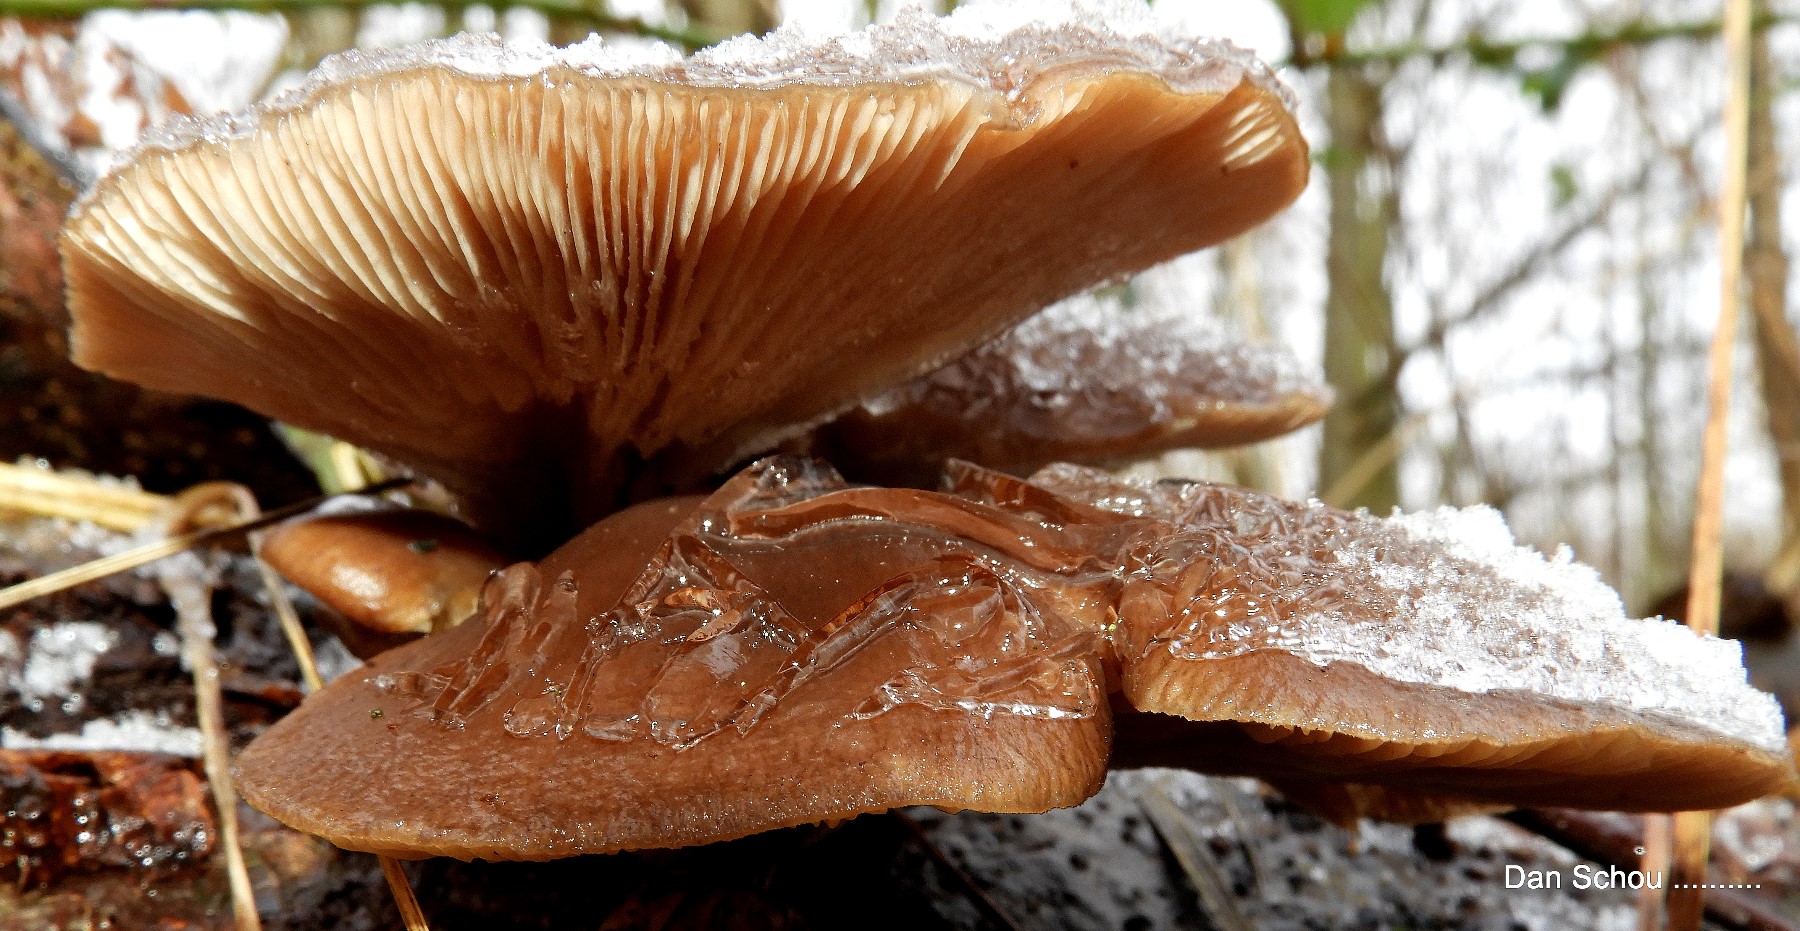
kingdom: Fungi
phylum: Basidiomycota
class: Agaricomycetes
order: Agaricales
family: Pleurotaceae
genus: Pleurotus
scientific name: Pleurotus ostreatus
